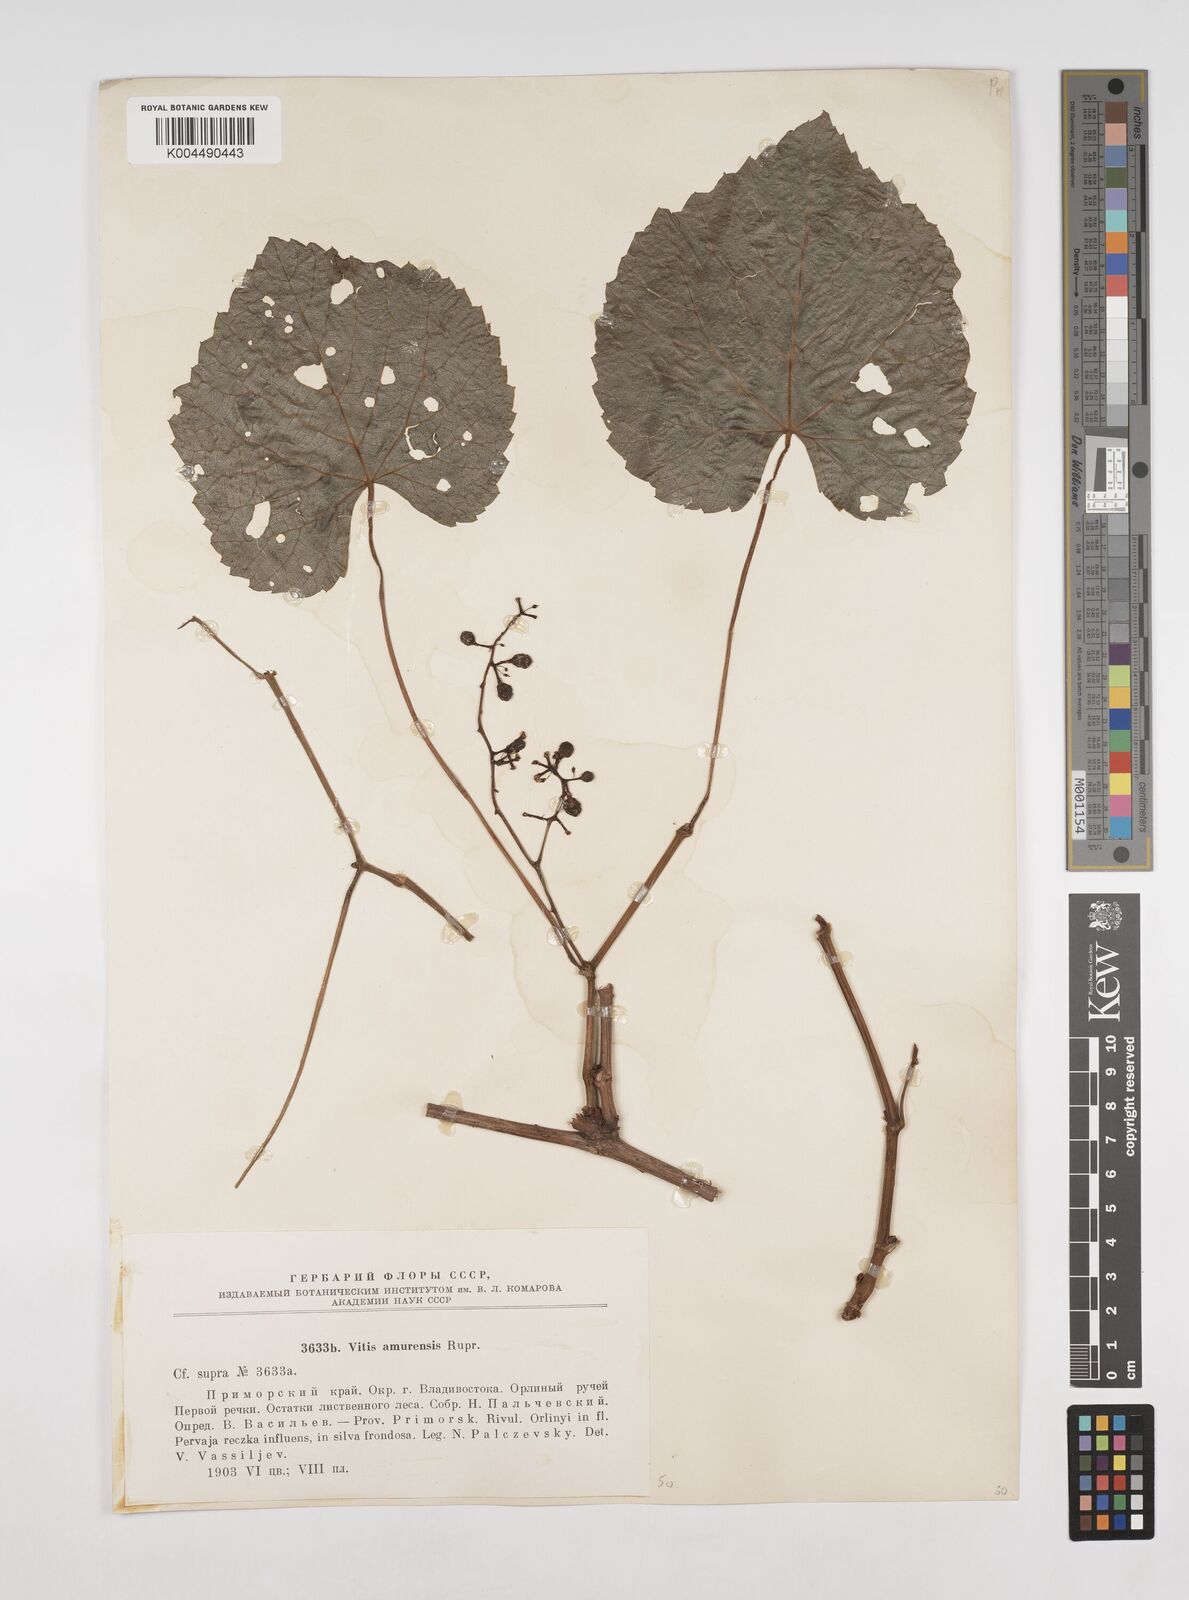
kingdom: Plantae
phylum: Tracheophyta
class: Magnoliopsida
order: Vitales
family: Vitaceae
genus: Vitis
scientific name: Vitis vinifera
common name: Grape-vine
